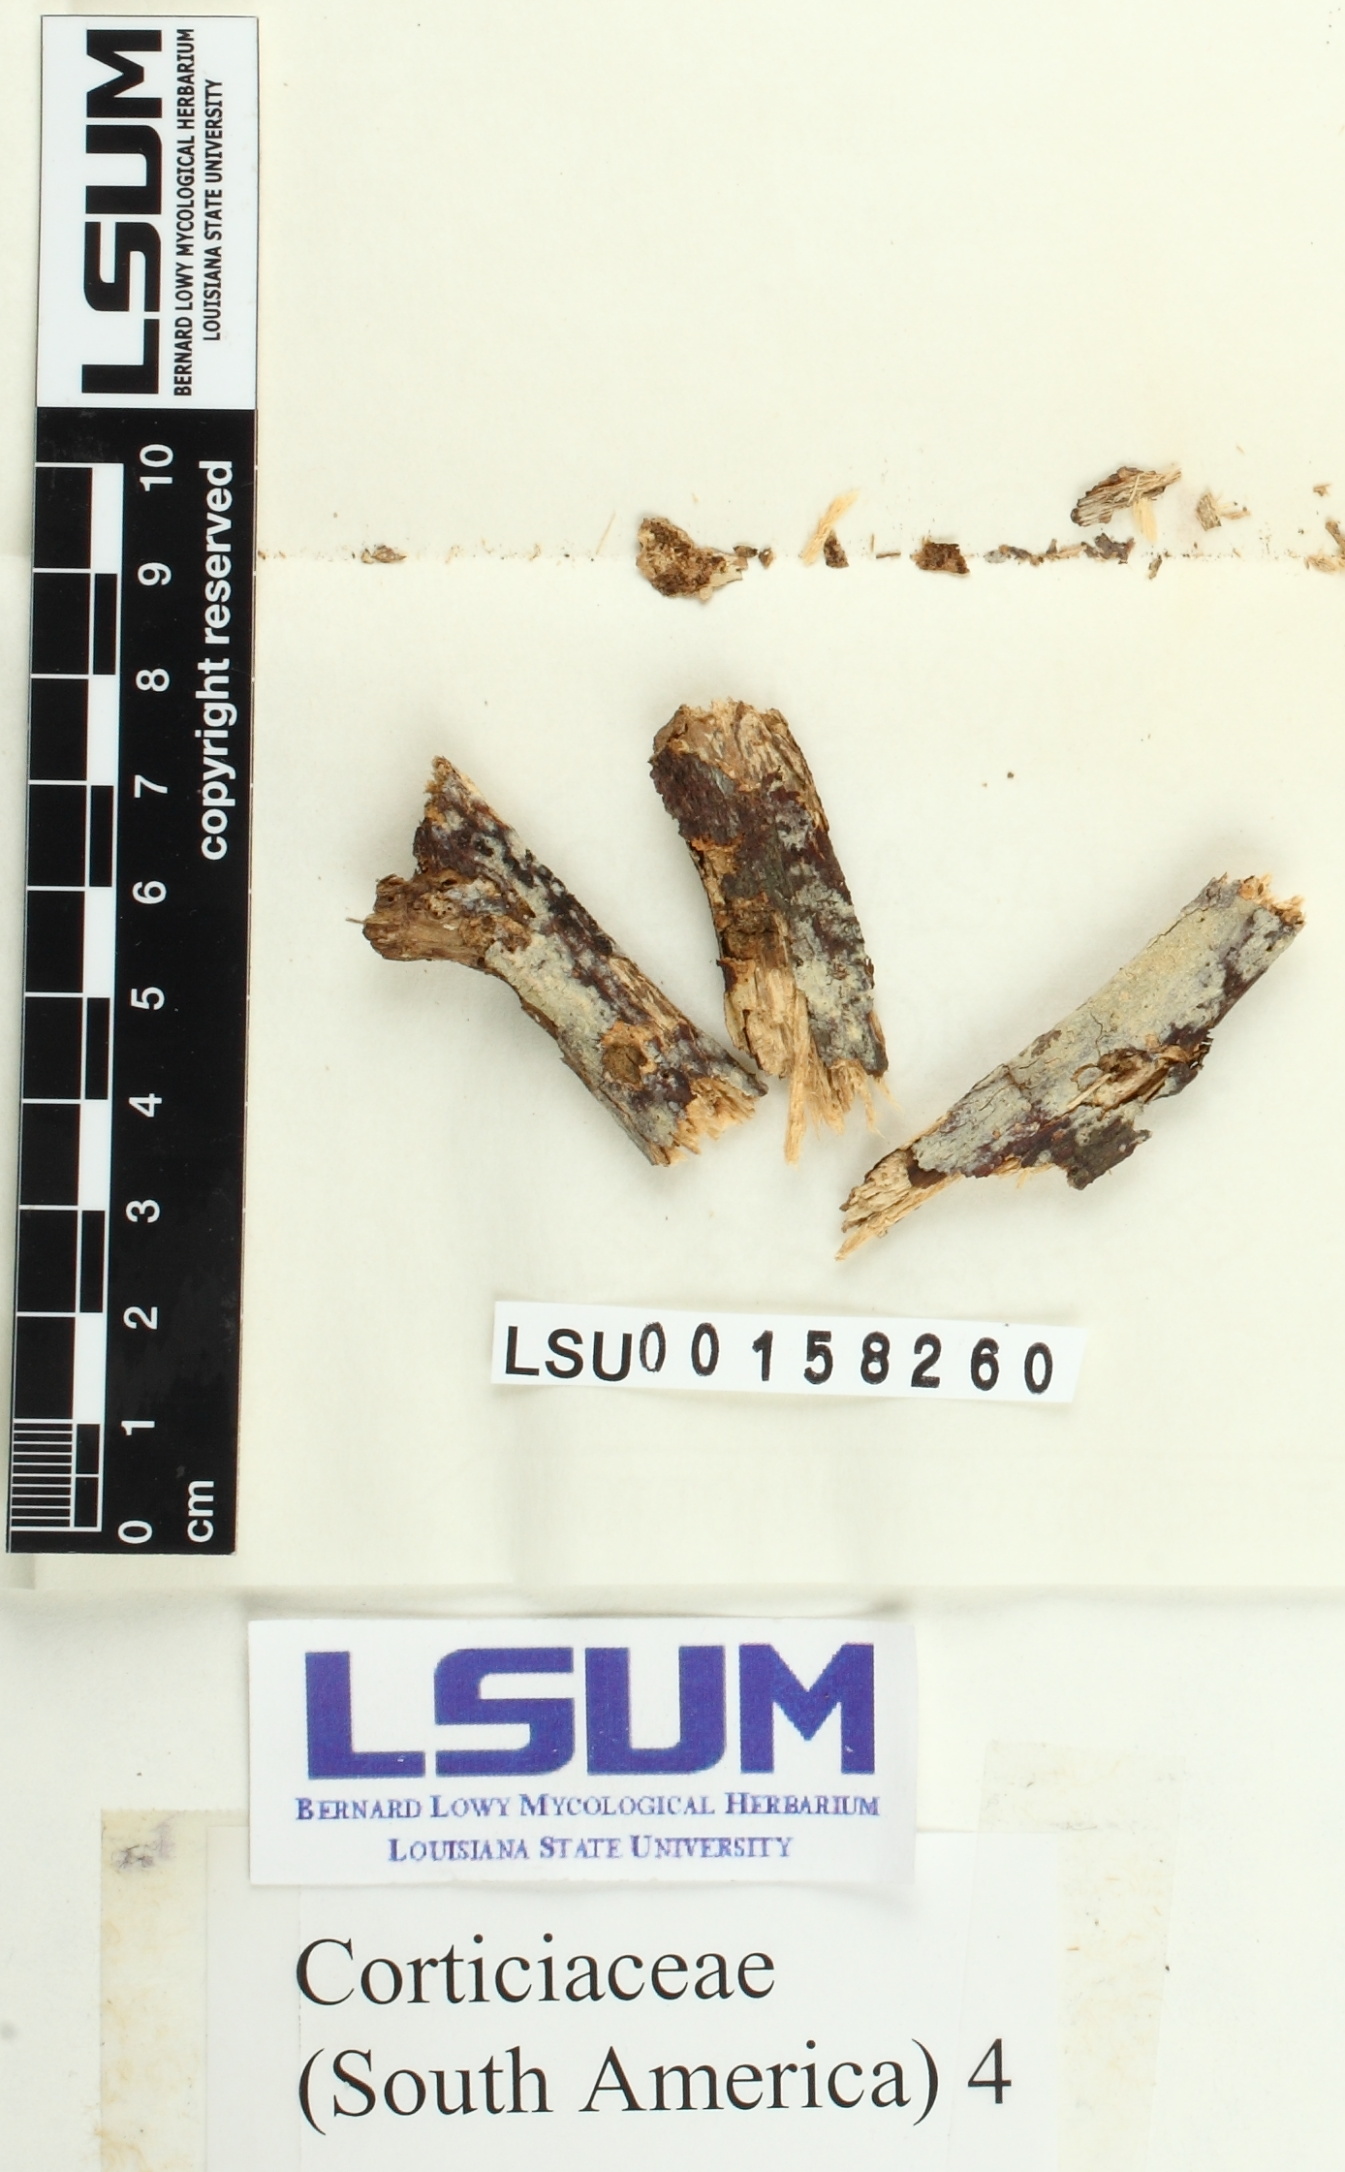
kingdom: Fungi
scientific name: Fungi
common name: Fungi
